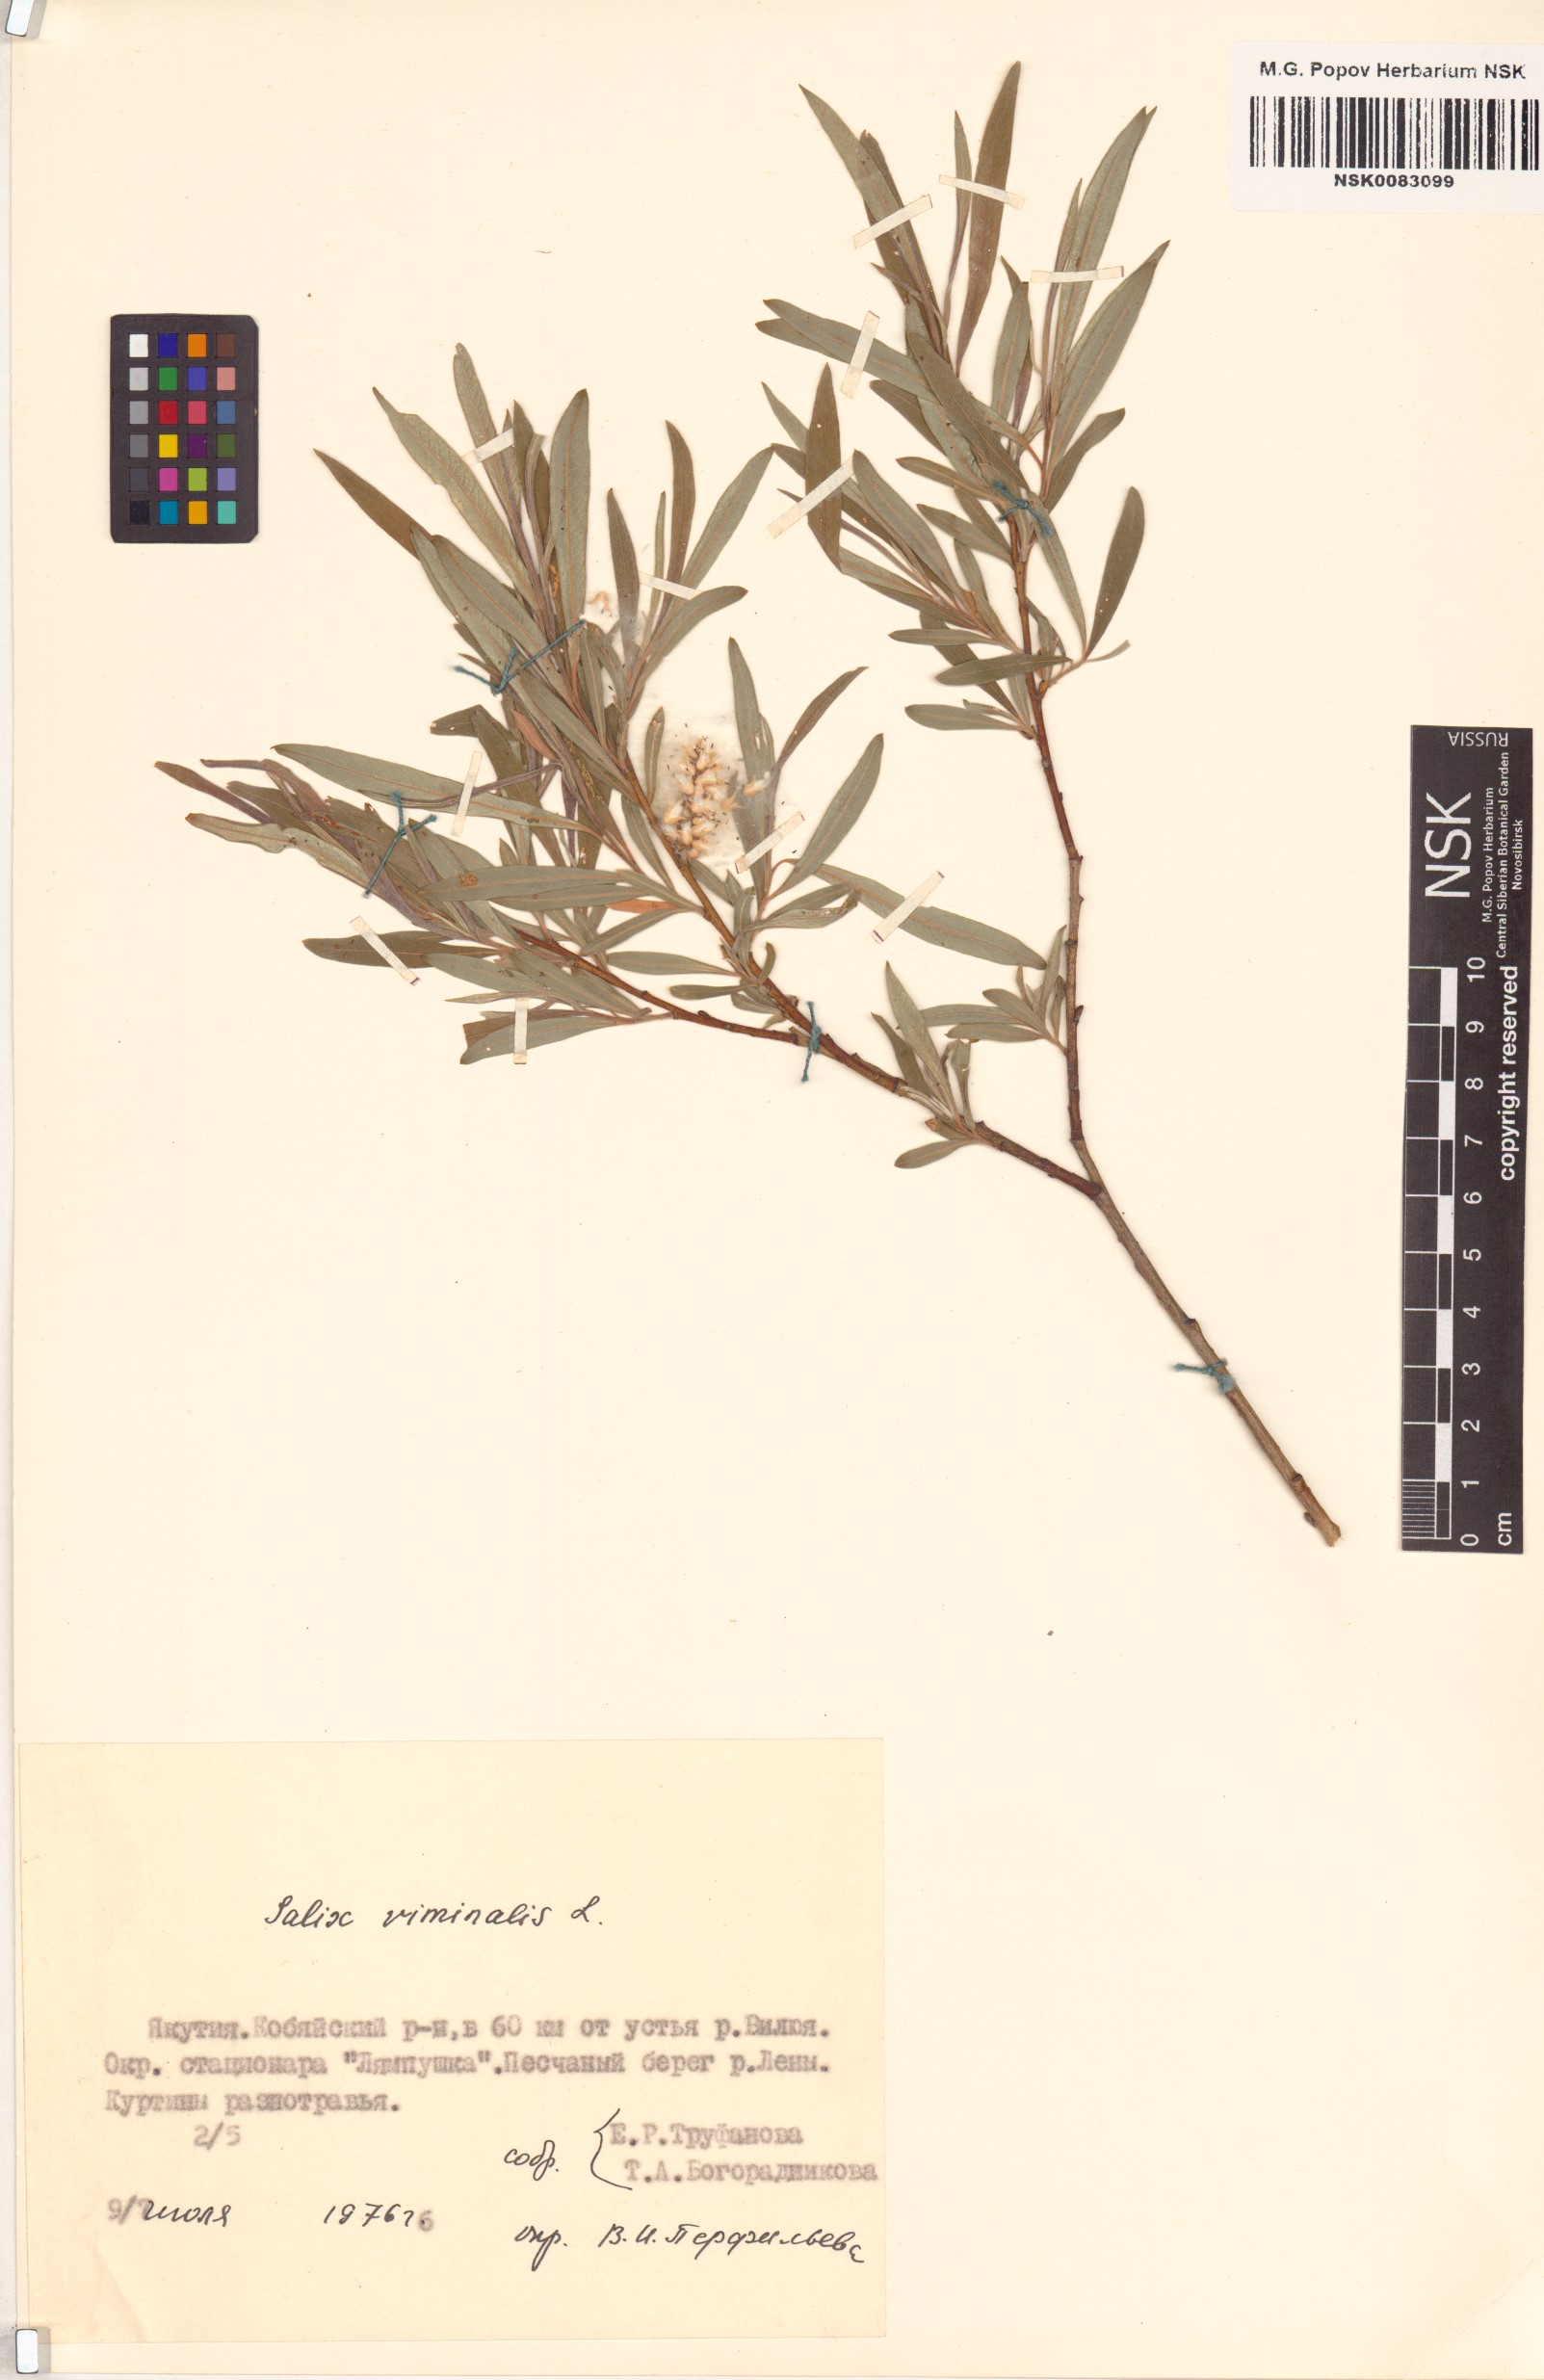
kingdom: Plantae
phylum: Tracheophyta
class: Magnoliopsida
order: Malpighiales
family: Salicaceae
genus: Salix
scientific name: Salix viminalis
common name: Osier
